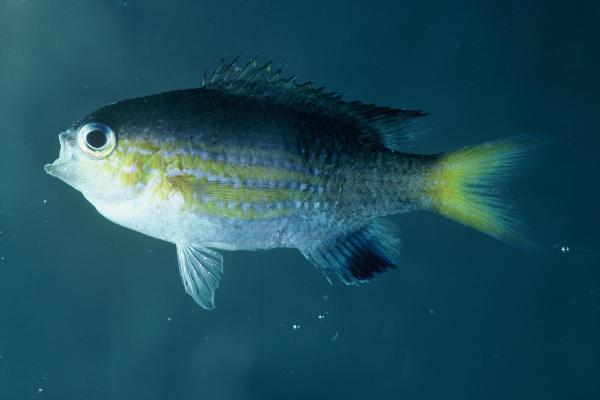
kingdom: Animalia
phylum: Chordata
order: Perciformes
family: Pomacentridae
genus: Chromis
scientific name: Chromis nigrura
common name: Blacktail chromis
